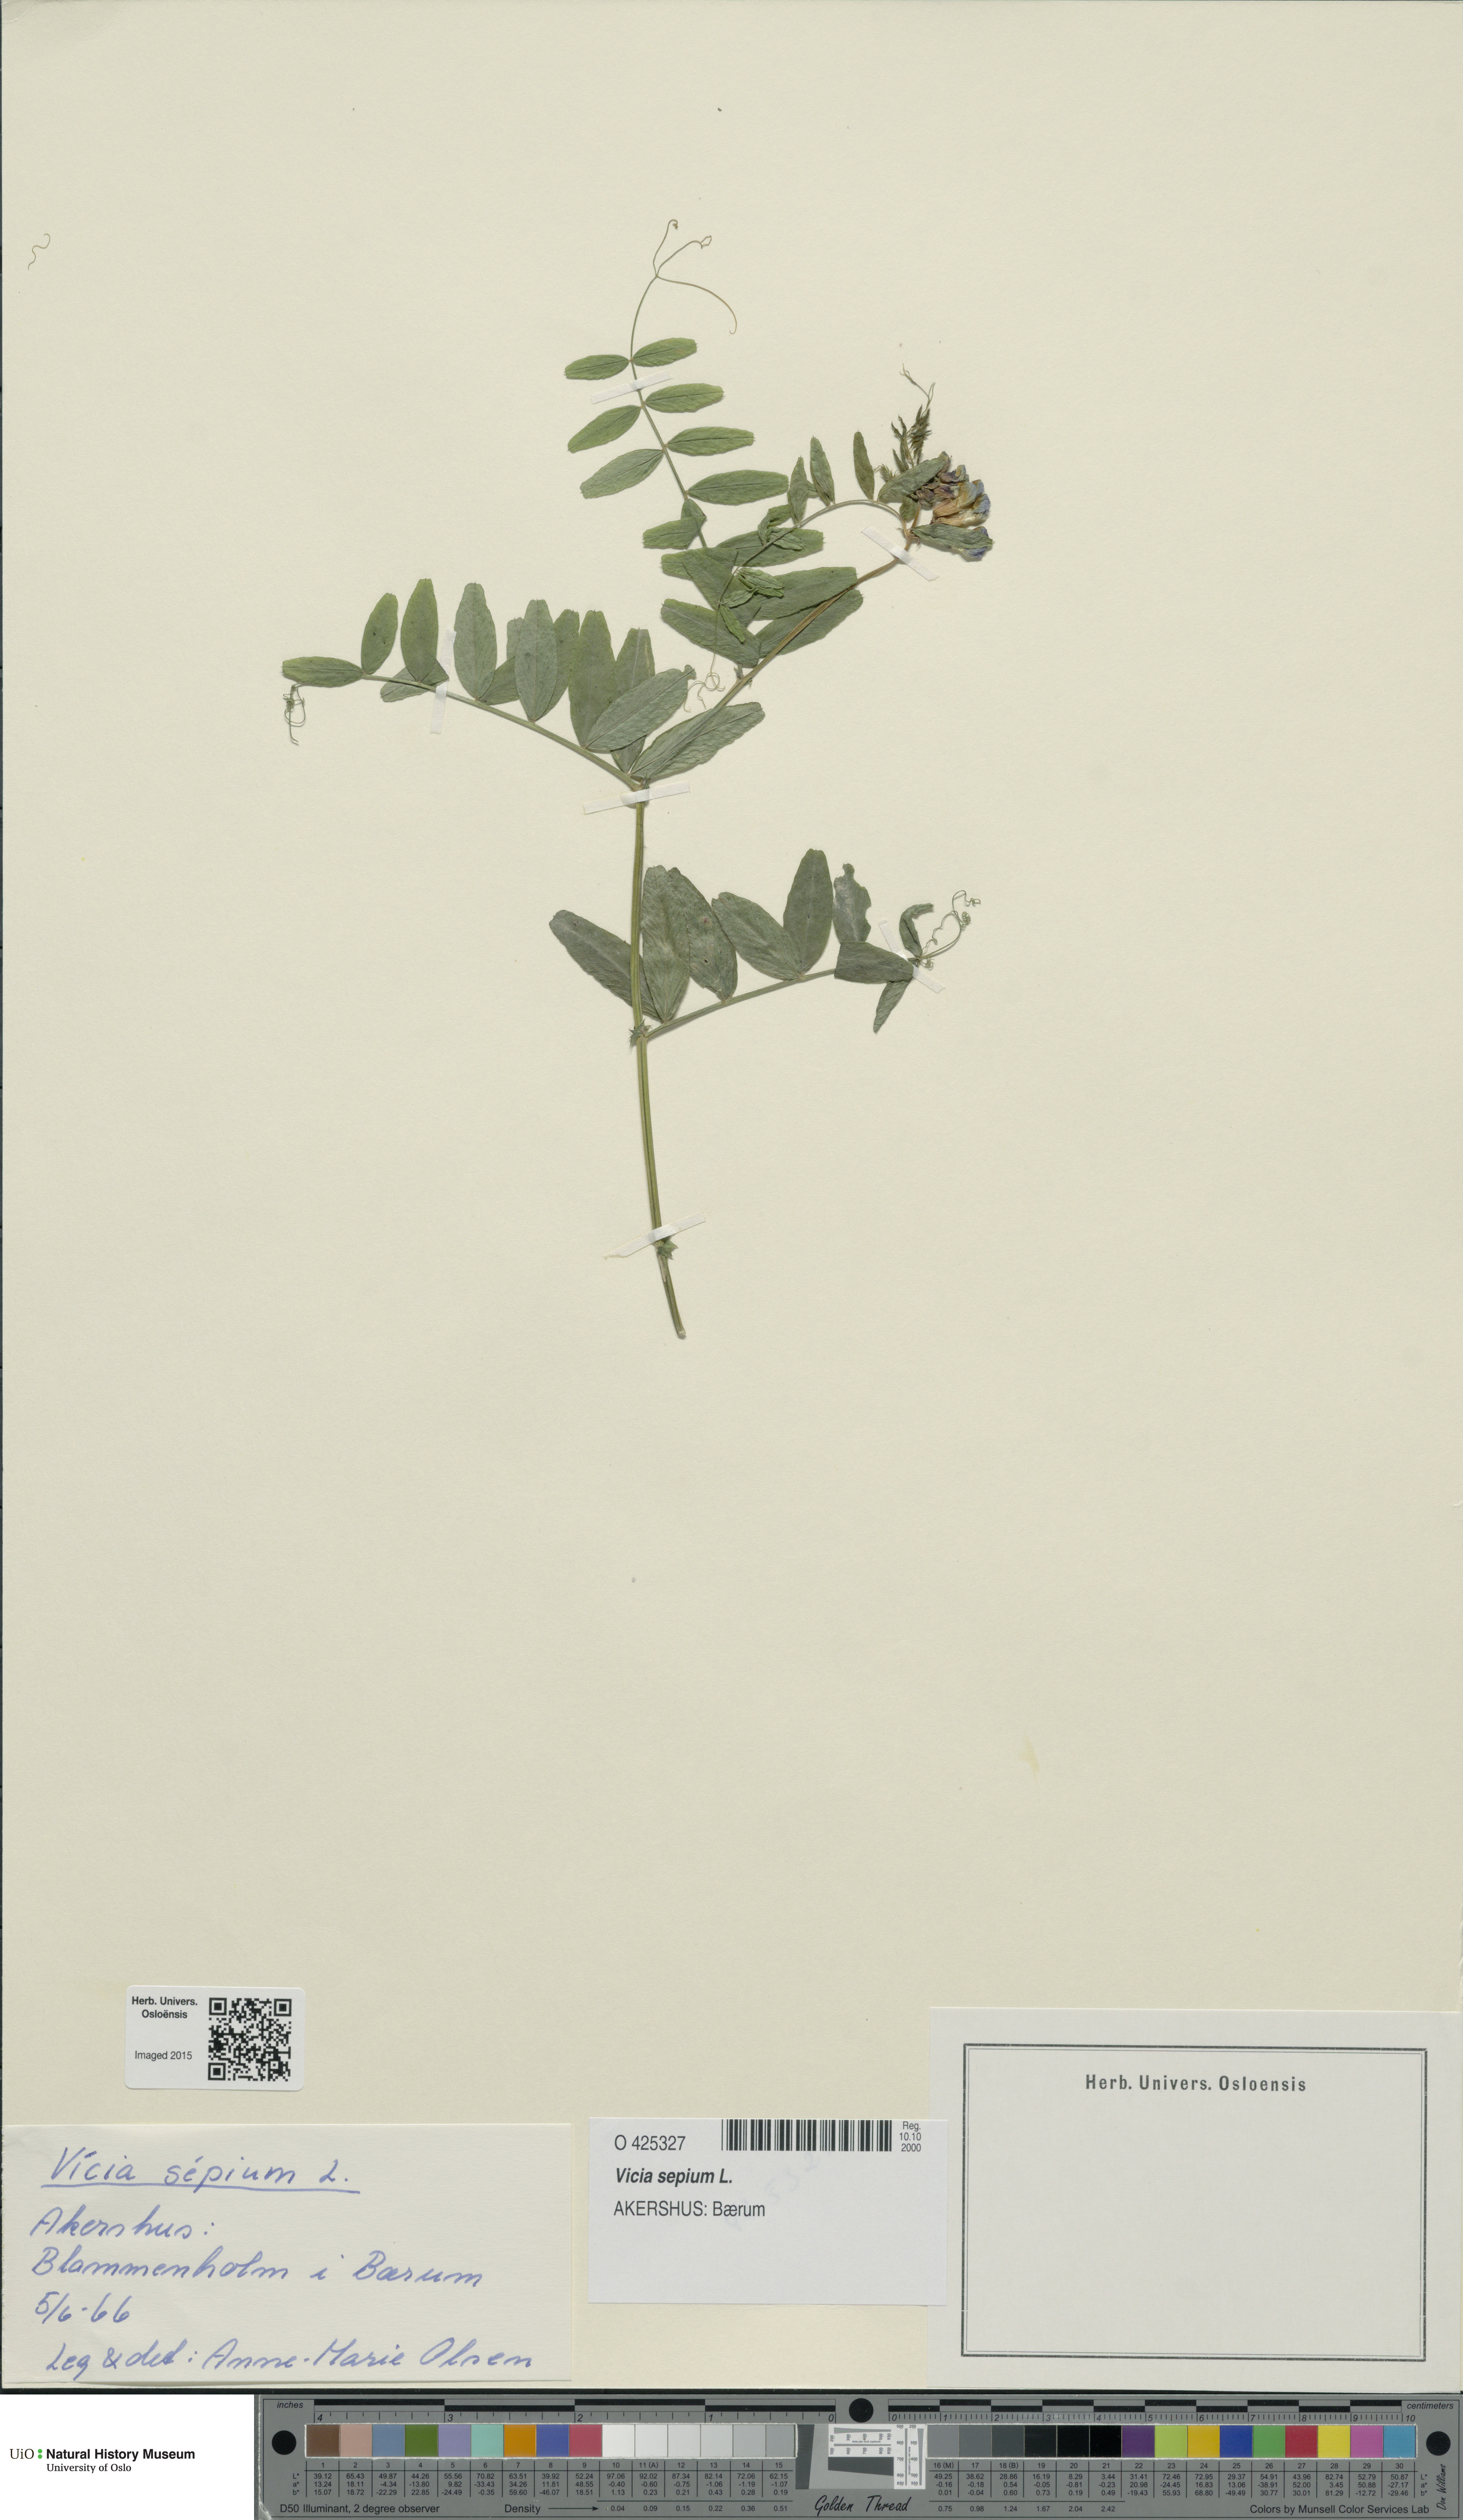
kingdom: Plantae
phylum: Tracheophyta
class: Magnoliopsida
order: Fabales
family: Fabaceae
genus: Vicia
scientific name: Vicia sepium
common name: Bush vetch
